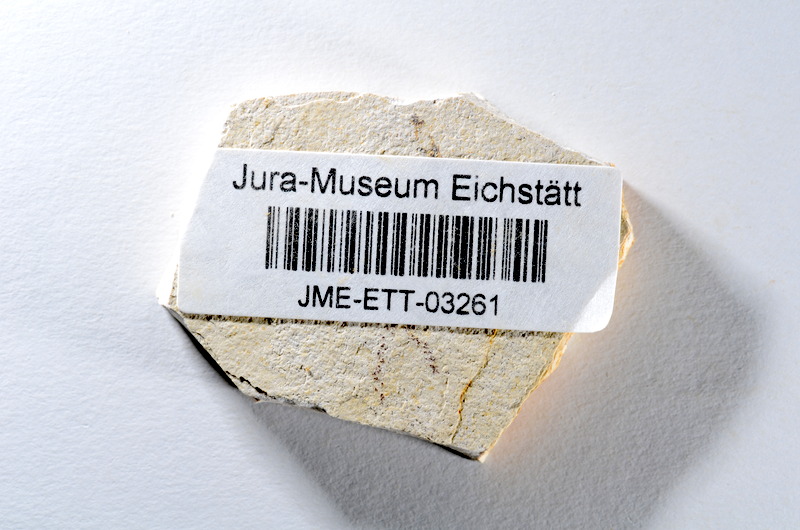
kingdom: Animalia
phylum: Chordata
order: Salmoniformes
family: Orthogonikleithridae
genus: Orthogonikleithrus
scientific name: Orthogonikleithrus hoelli
